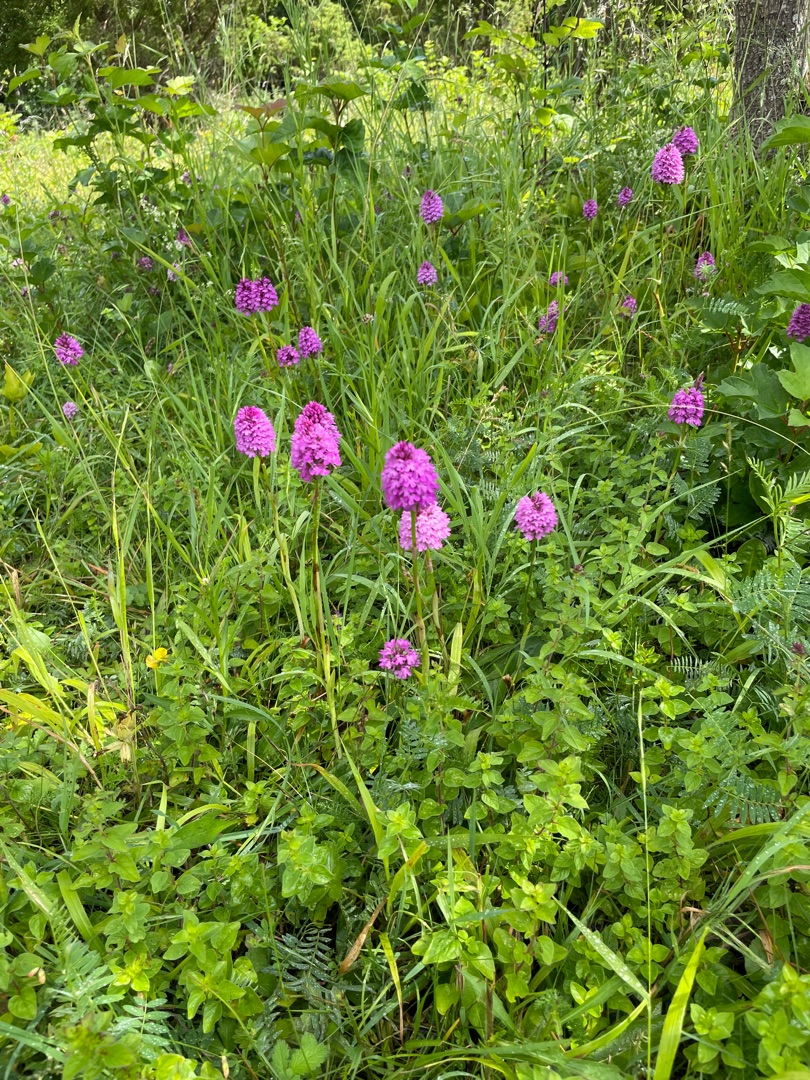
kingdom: Plantae
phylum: Tracheophyta
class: Liliopsida
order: Asparagales
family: Orchidaceae
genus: Anacamptis
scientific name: Anacamptis pyramidalis
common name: Horndrager
